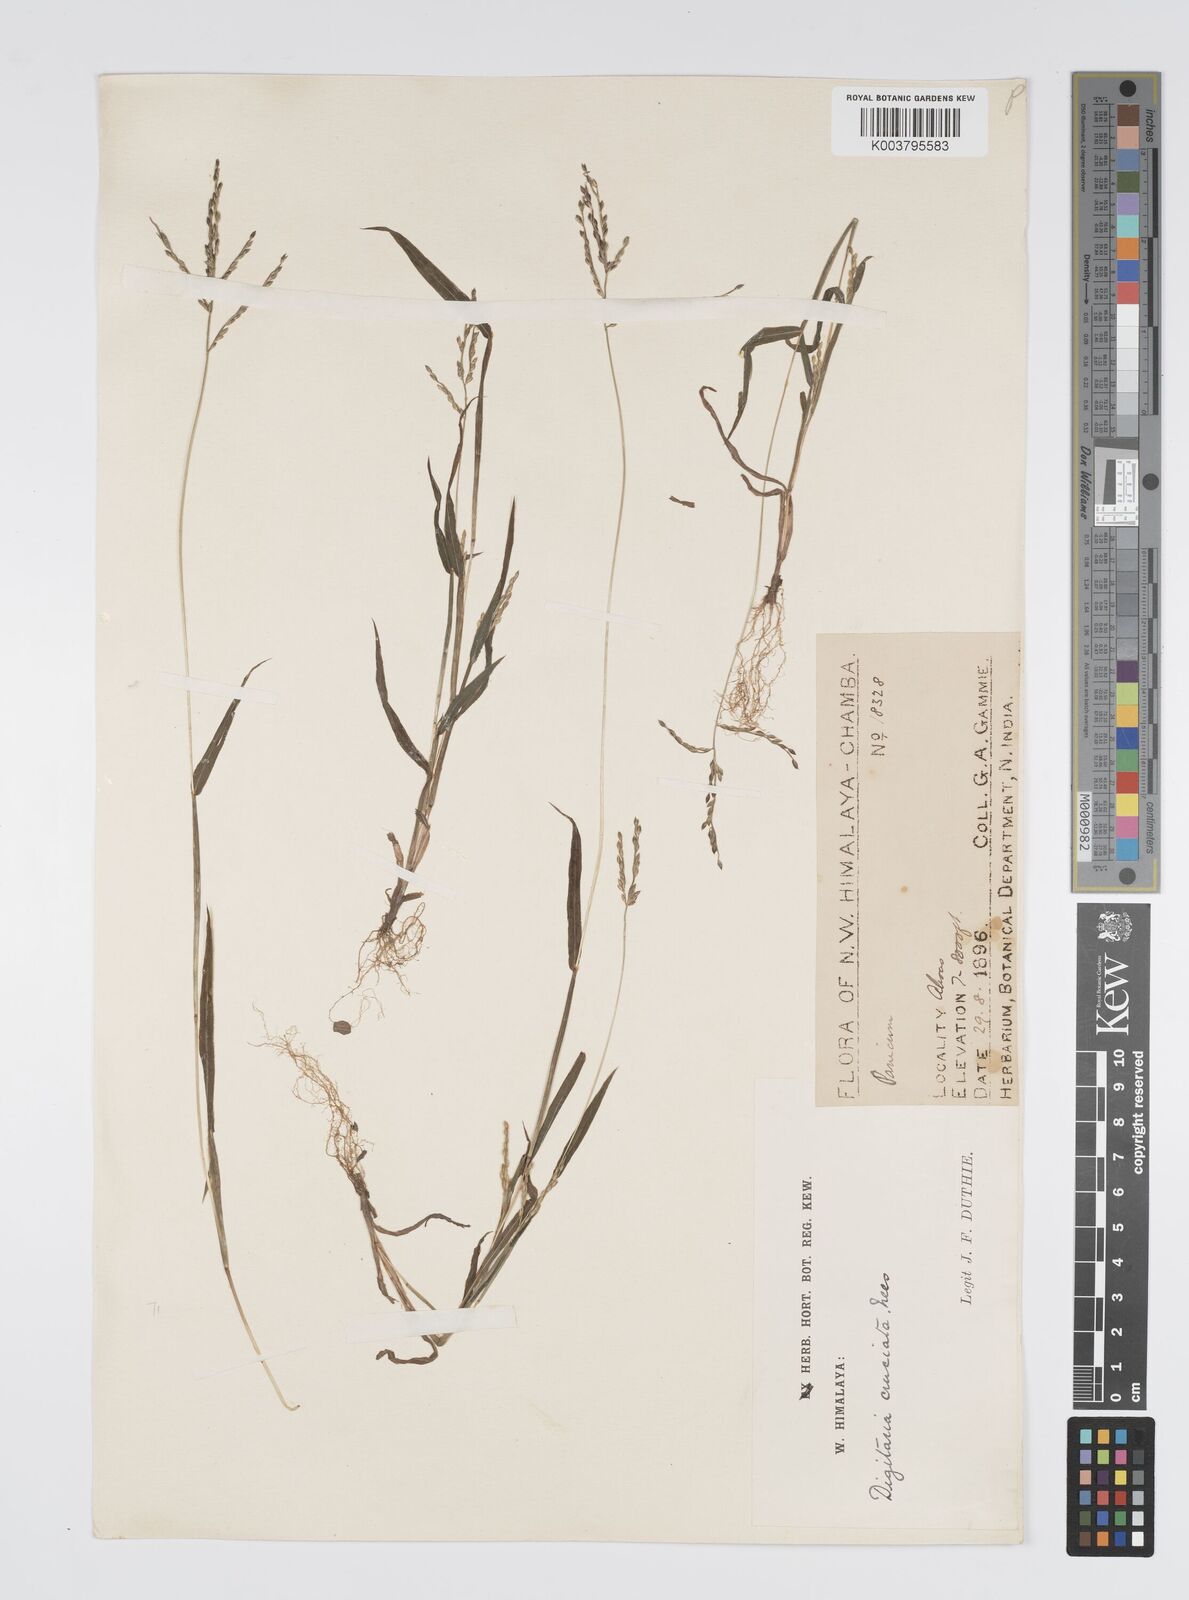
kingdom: Plantae
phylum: Tracheophyta
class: Liliopsida
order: Poales
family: Poaceae
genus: Digitaria
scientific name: Digitaria sanguinalis
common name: Hairy crabgrass
